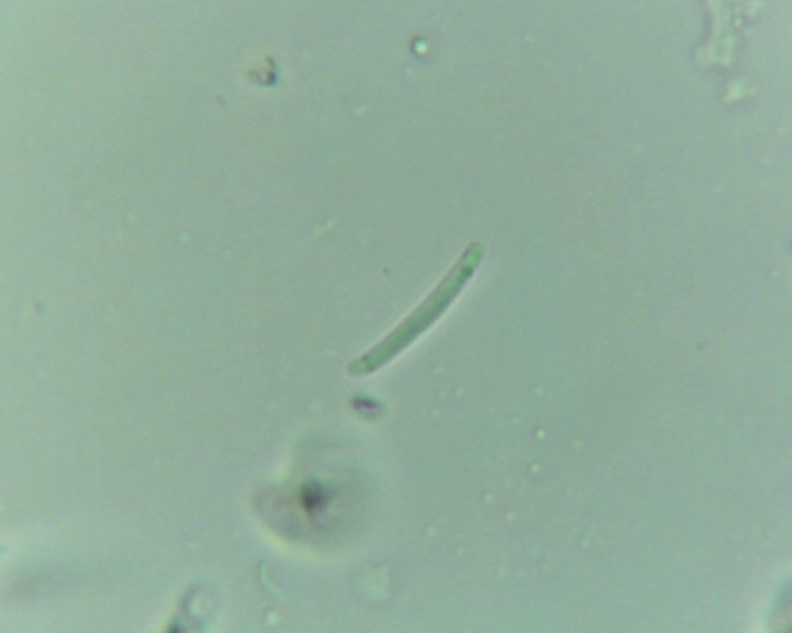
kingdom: Fungi
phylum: Ascomycota
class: Leotiomycetes
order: Rhytismatales
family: Rhytismataceae
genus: Lophodermium
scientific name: Lophodermium piceae
